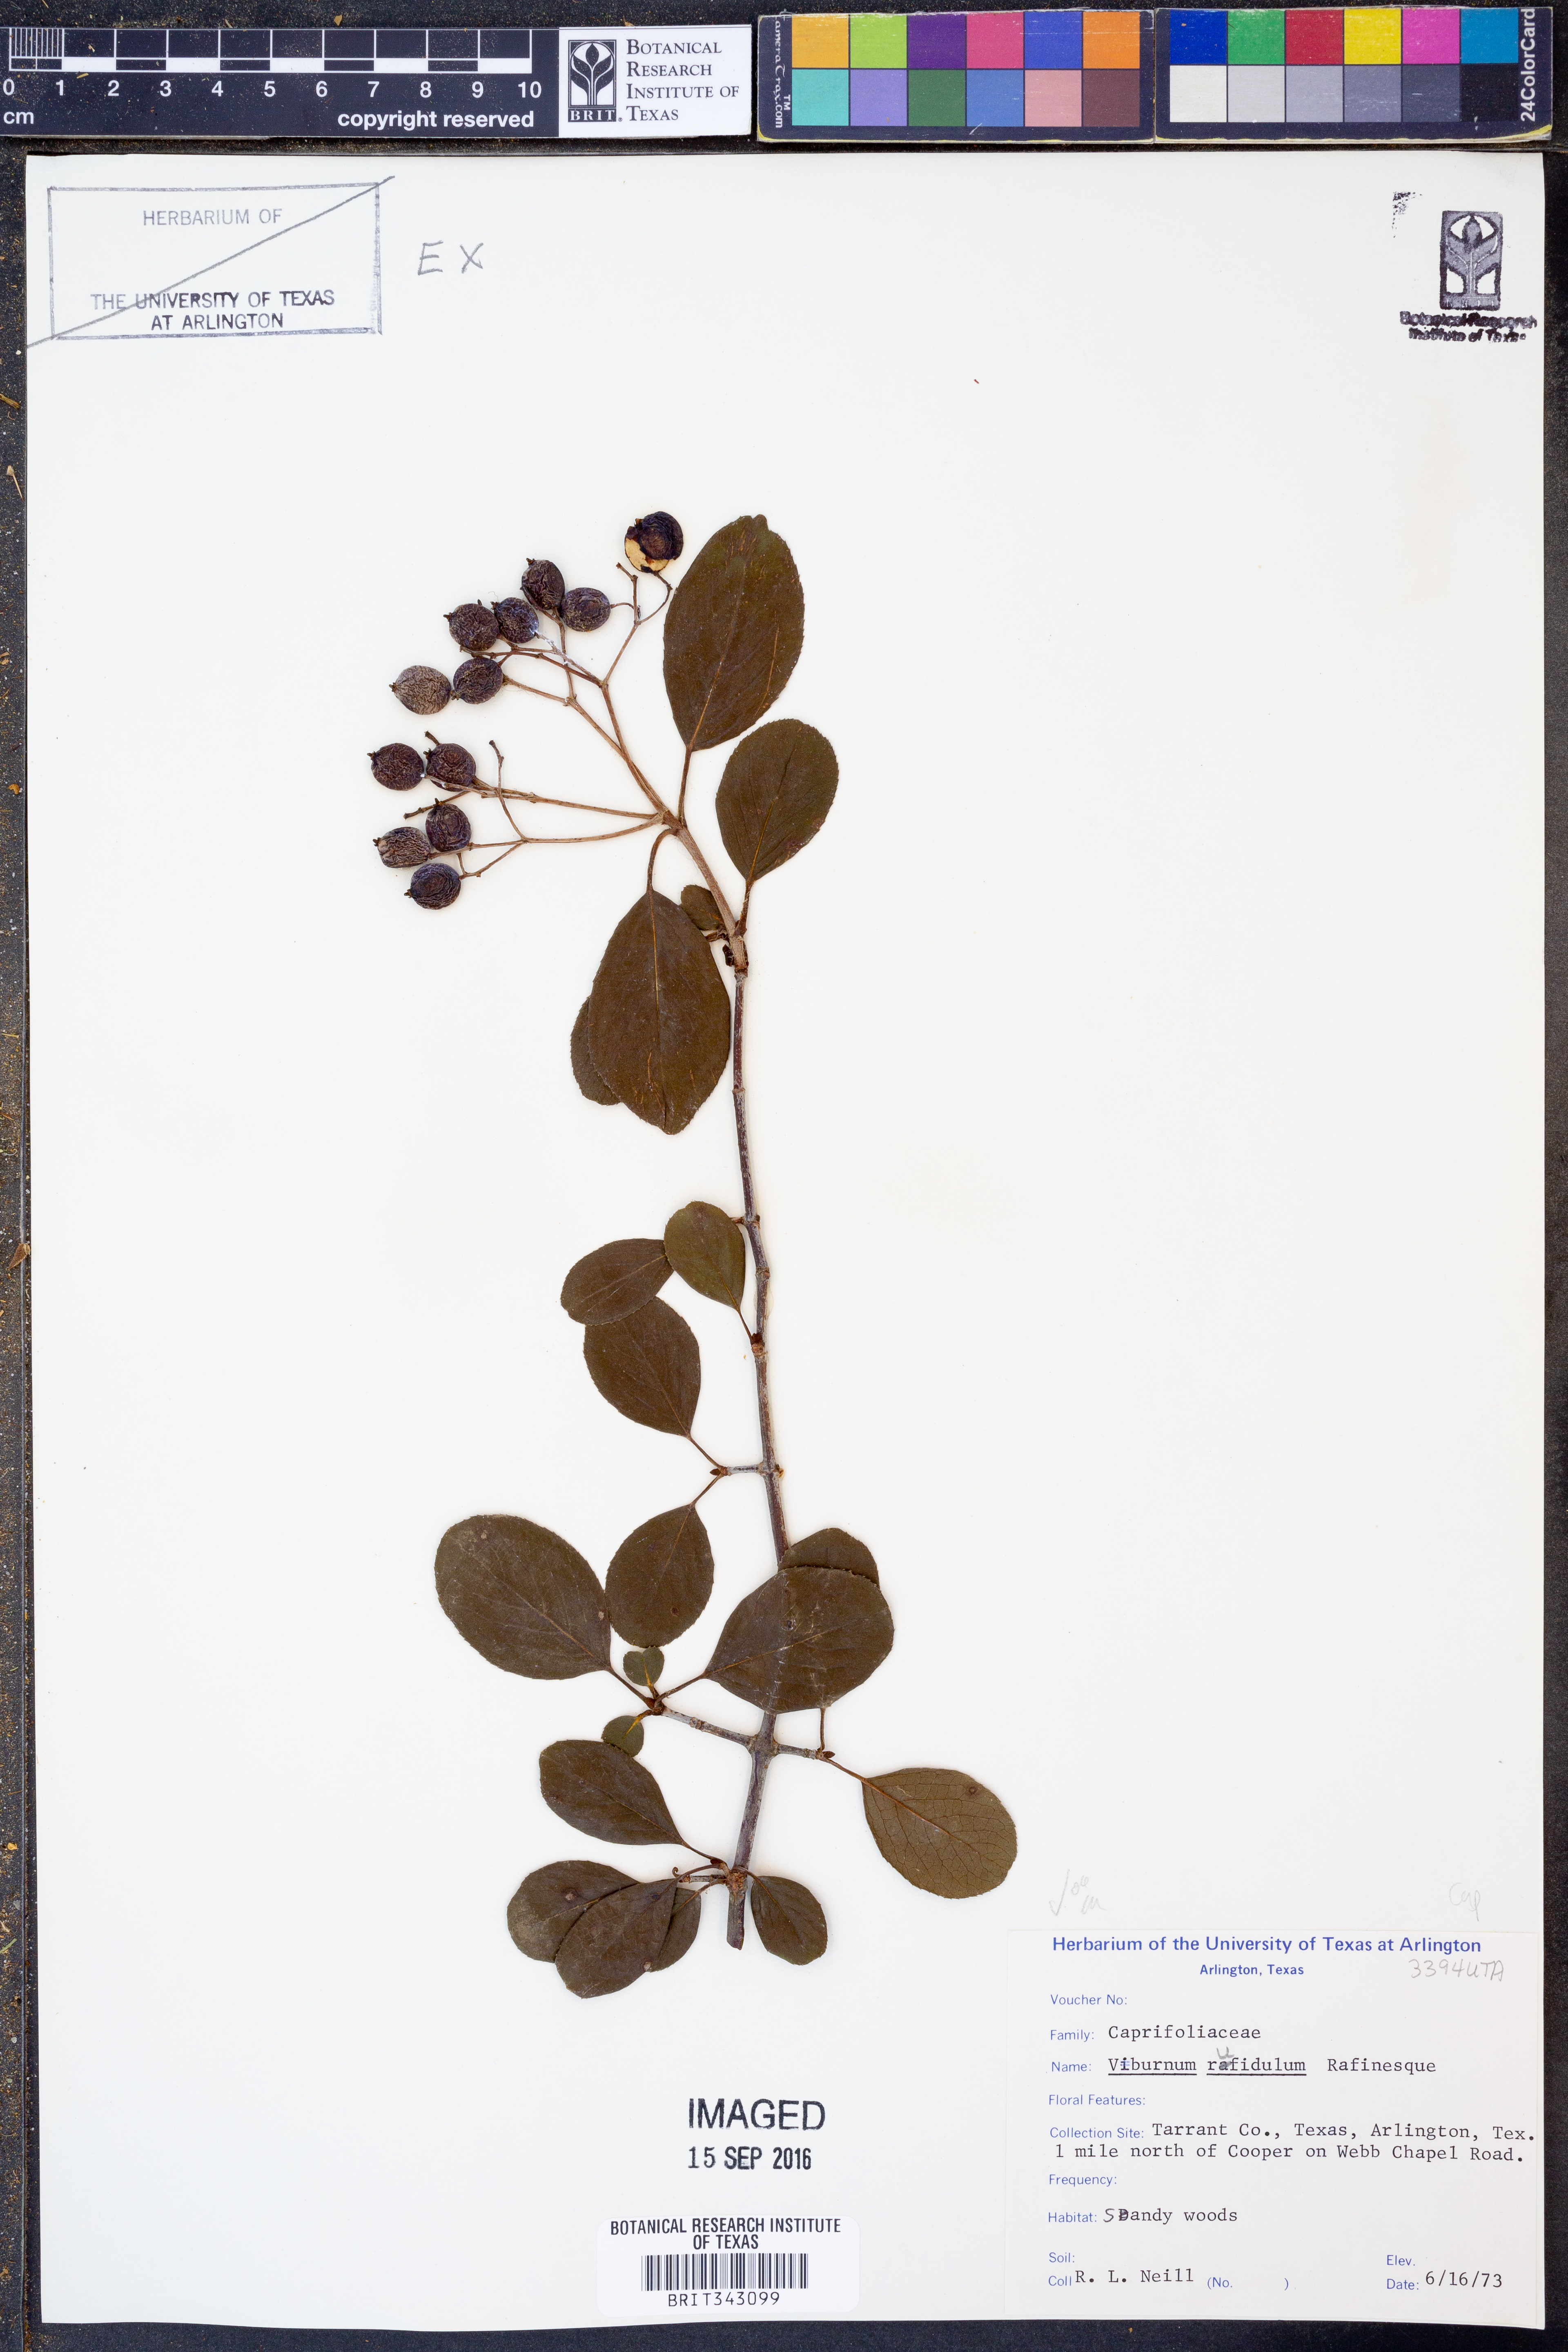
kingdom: Plantae
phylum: Tracheophyta
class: Magnoliopsida
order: Dipsacales
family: Viburnaceae
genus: Viburnum
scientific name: Viburnum rufidulum
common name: Blue haw
